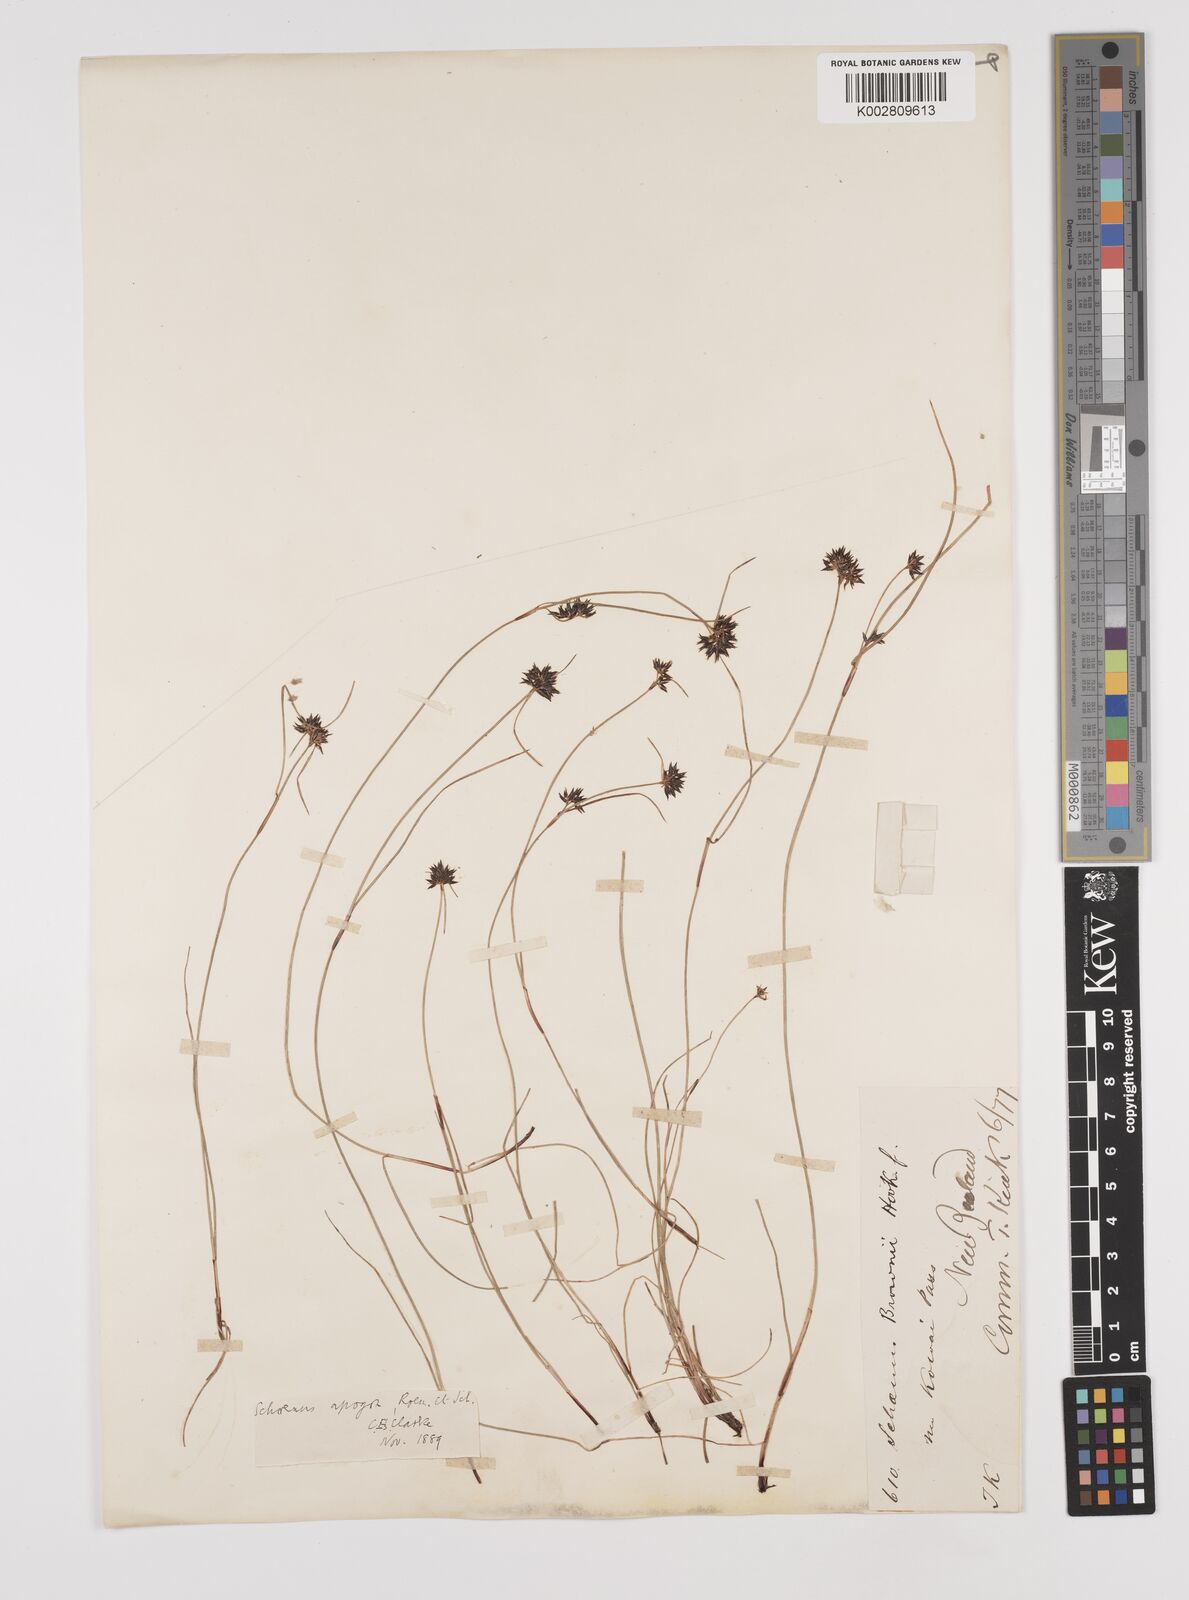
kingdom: Plantae
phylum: Tracheophyta
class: Liliopsida
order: Poales
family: Cyperaceae
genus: Schoenus
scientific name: Schoenus apogon
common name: Smooth bogrush
